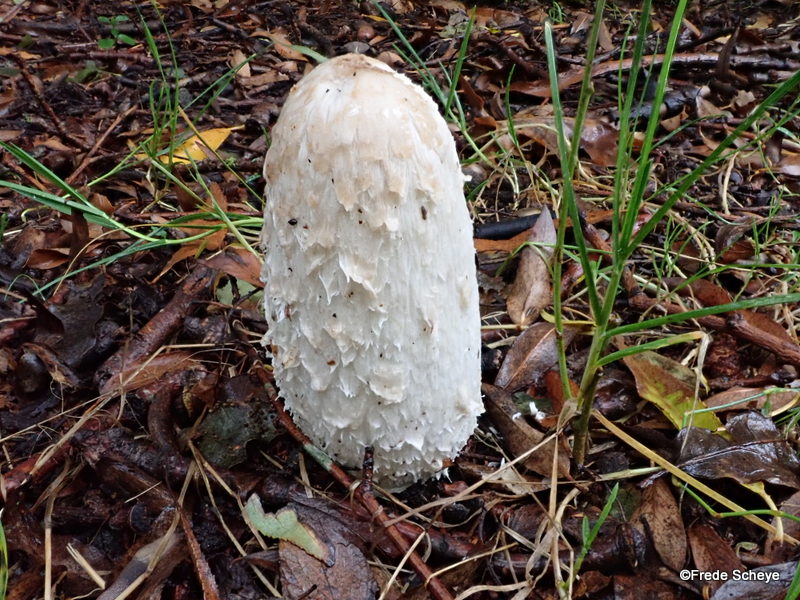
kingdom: Fungi
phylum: Basidiomycota
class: Agaricomycetes
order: Agaricales
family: Agaricaceae
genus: Coprinus
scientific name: Coprinus comatus
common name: stor parykhat
